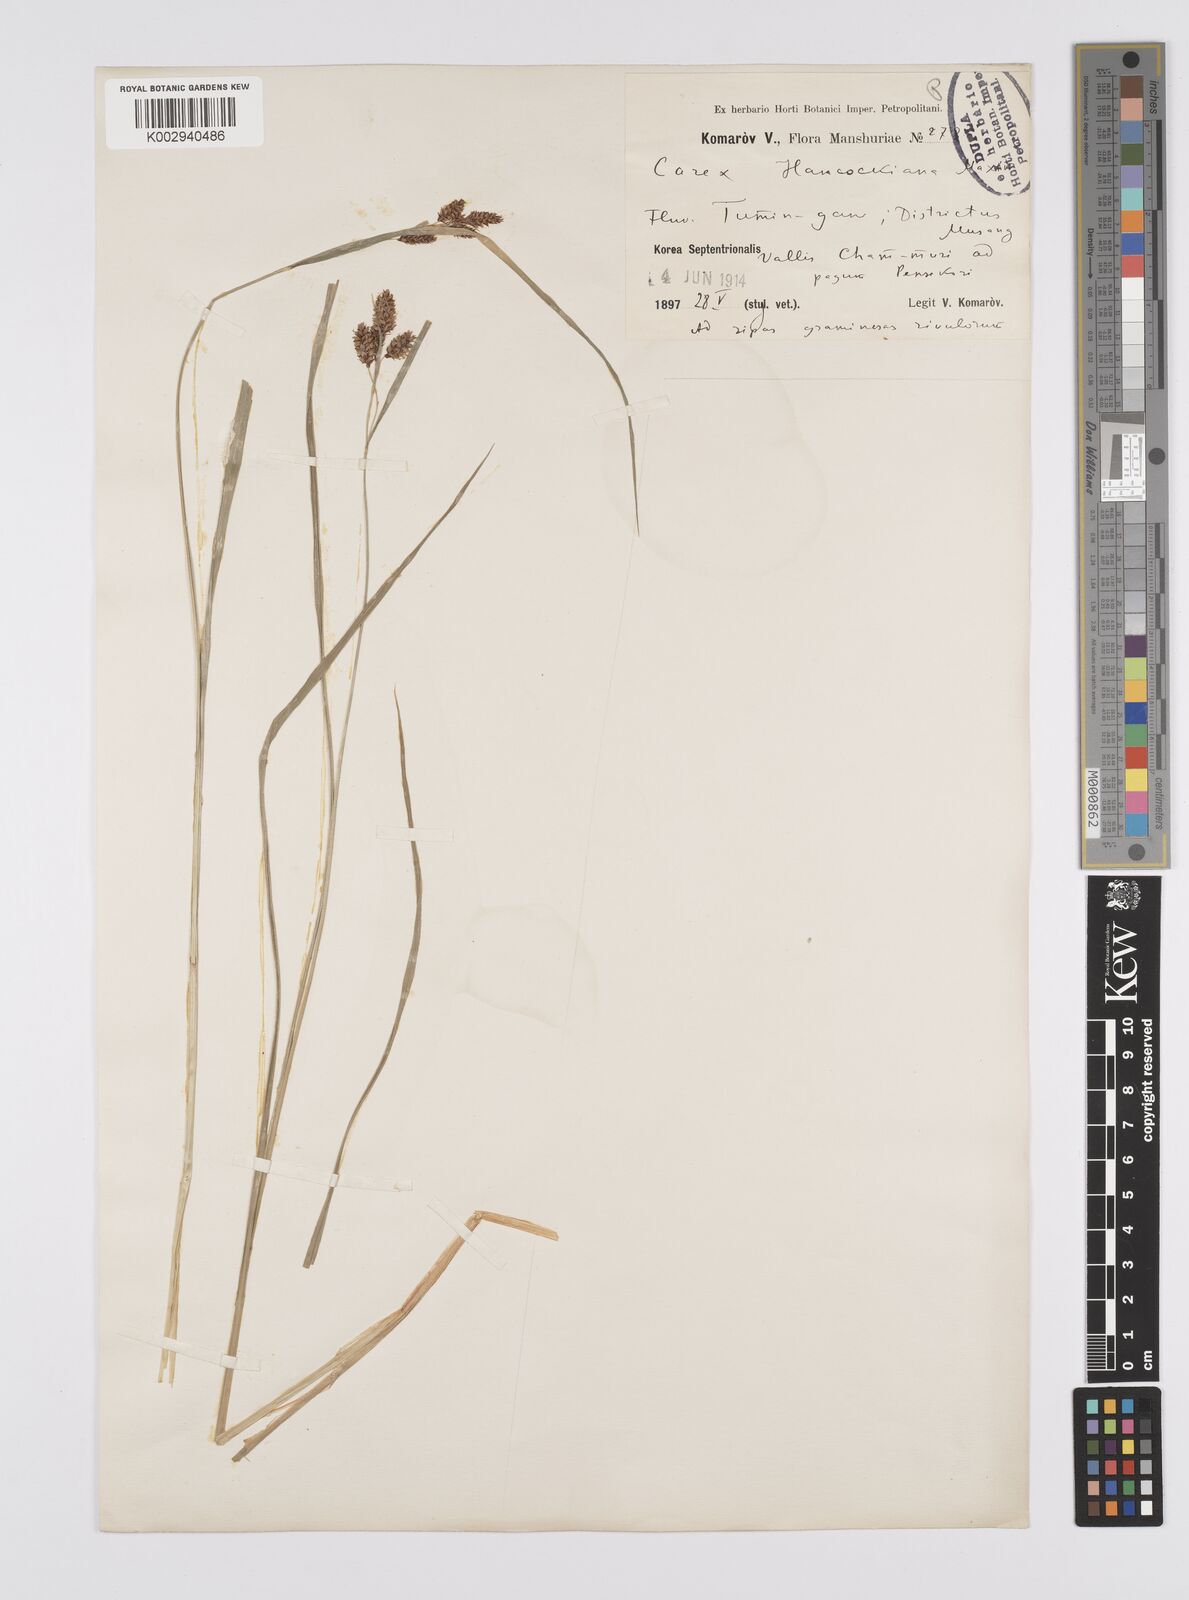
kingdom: Plantae
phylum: Tracheophyta
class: Liliopsida
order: Poales
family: Cyperaceae
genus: Carex
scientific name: Carex hancockiana
